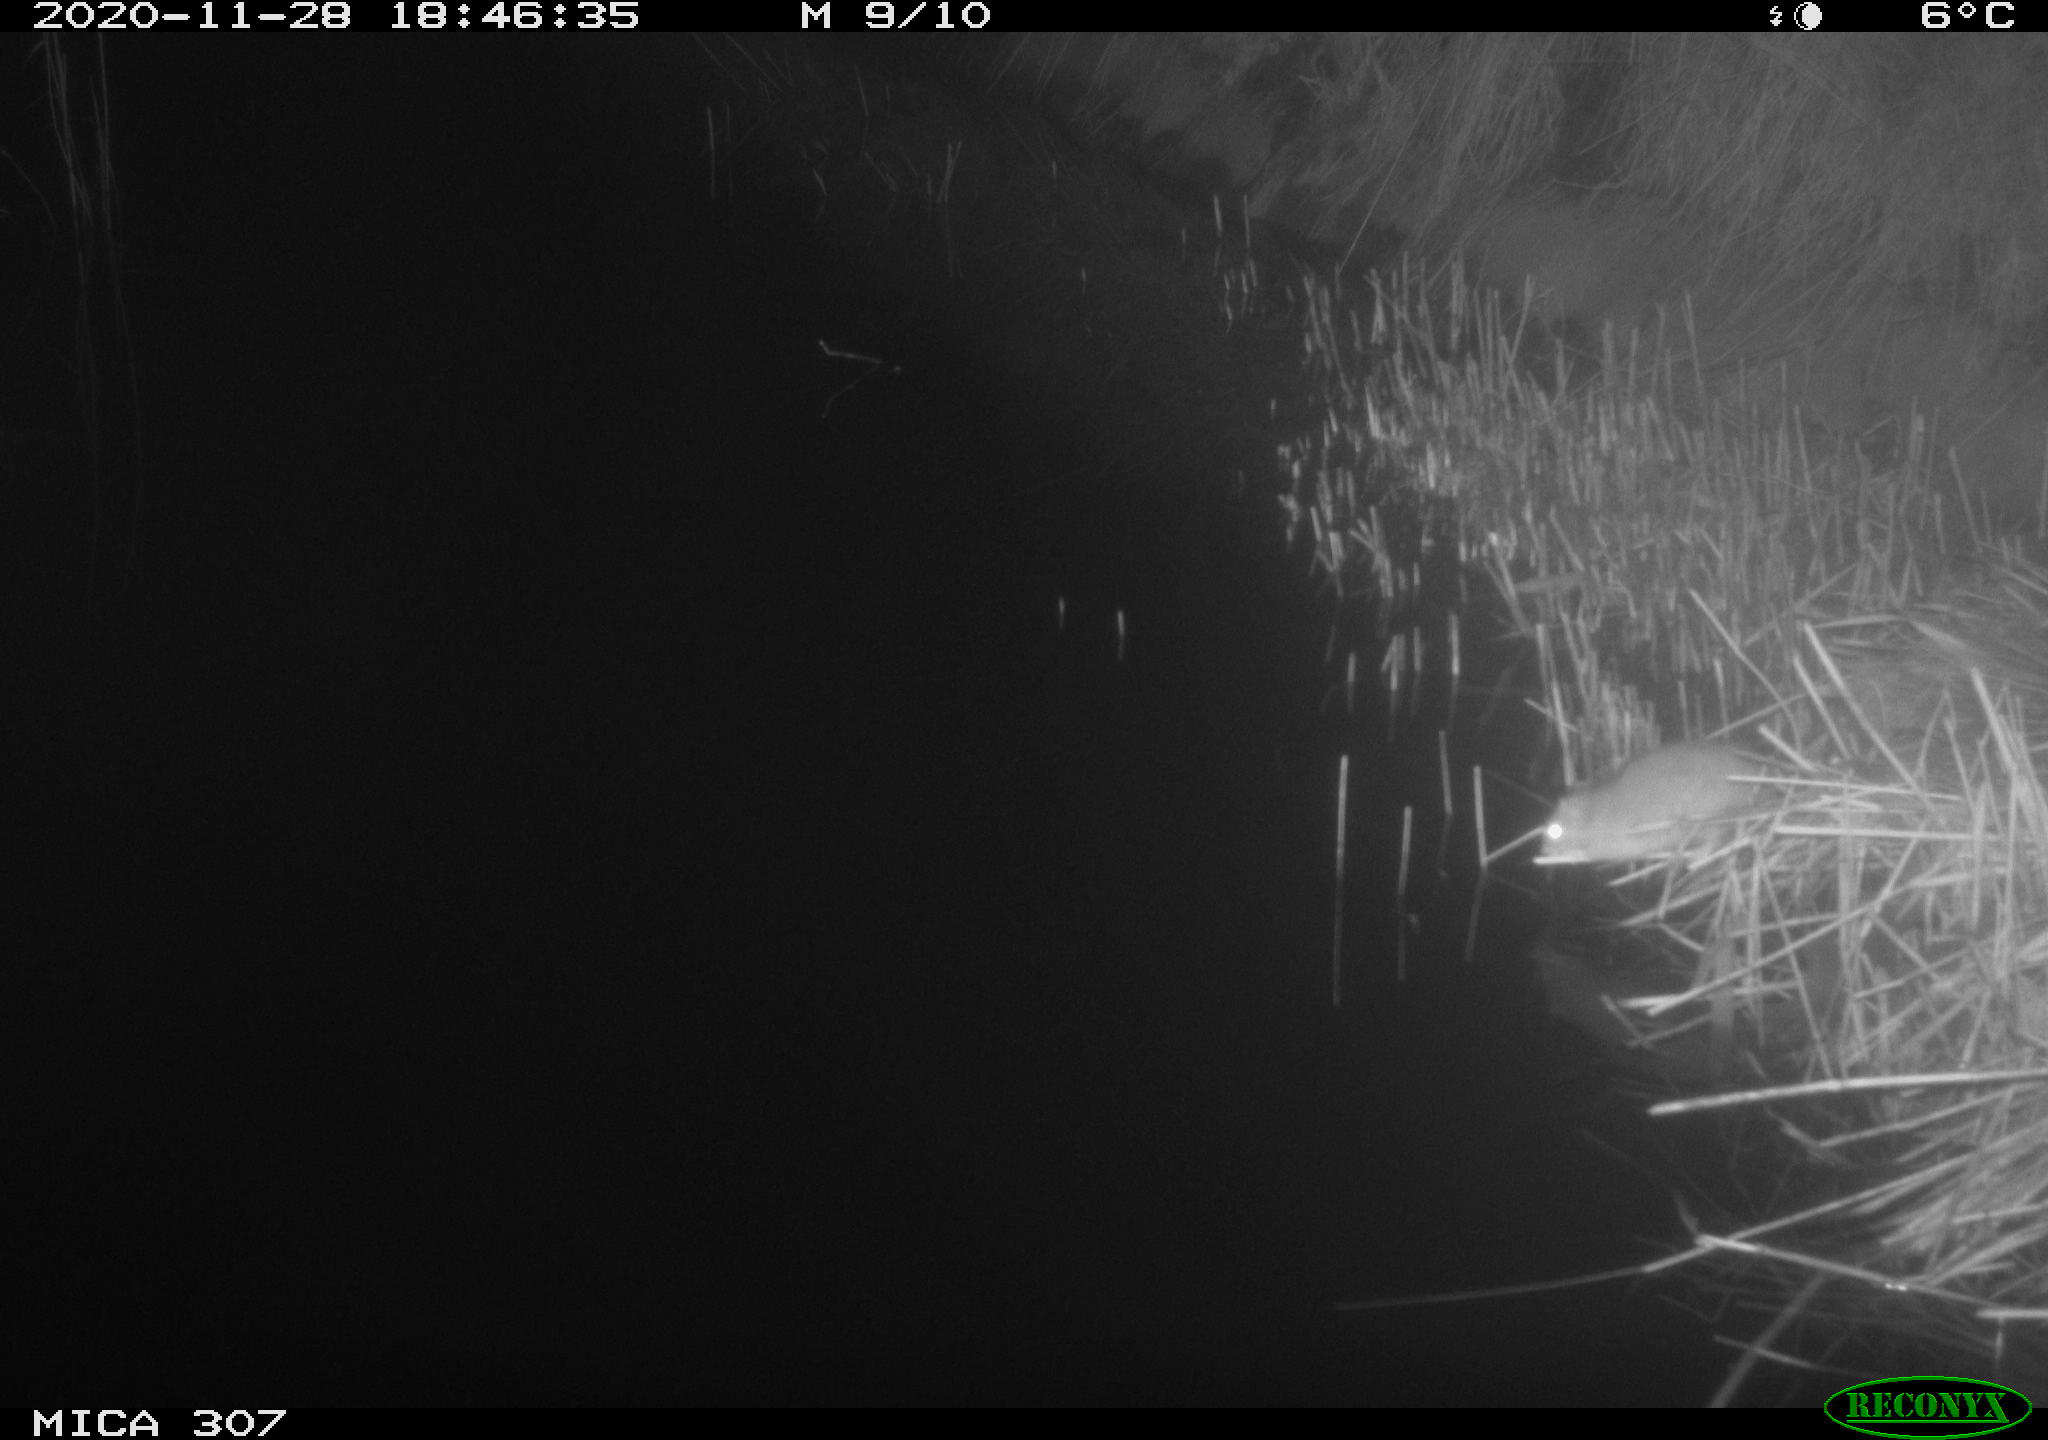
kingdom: Animalia
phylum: Chordata
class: Mammalia
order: Rodentia
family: Muridae
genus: Rattus
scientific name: Rattus norvegicus
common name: Brown rat
